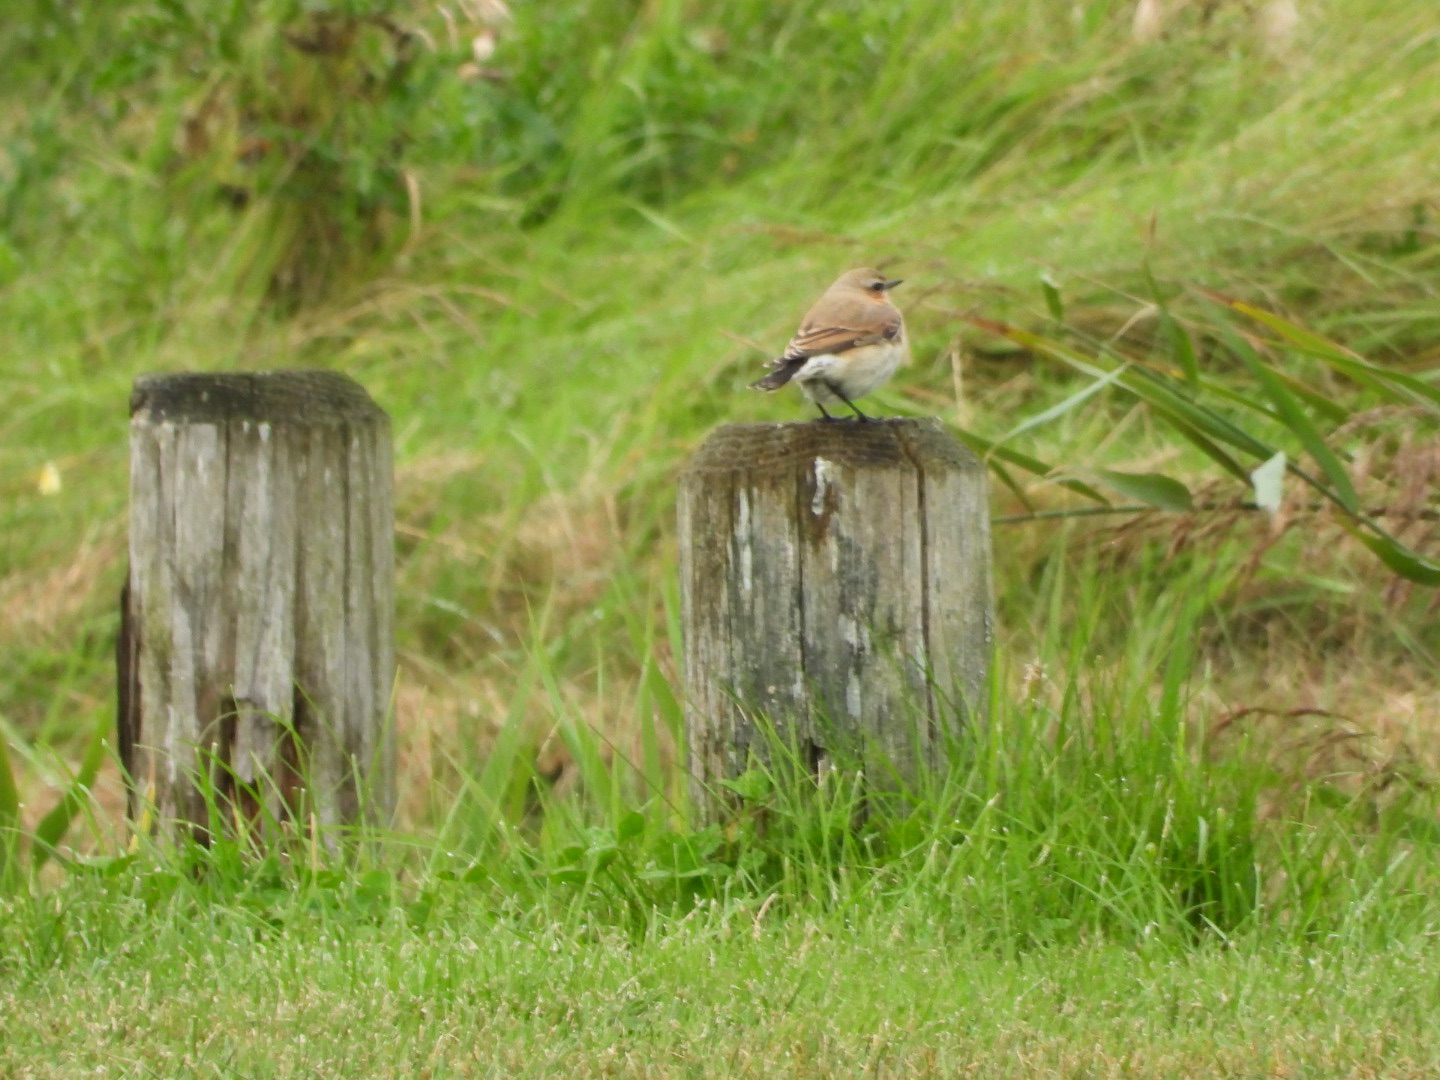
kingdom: Animalia
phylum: Chordata
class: Aves
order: Passeriformes
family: Muscicapidae
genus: Oenanthe
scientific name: Oenanthe oenanthe
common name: Stenpikker
